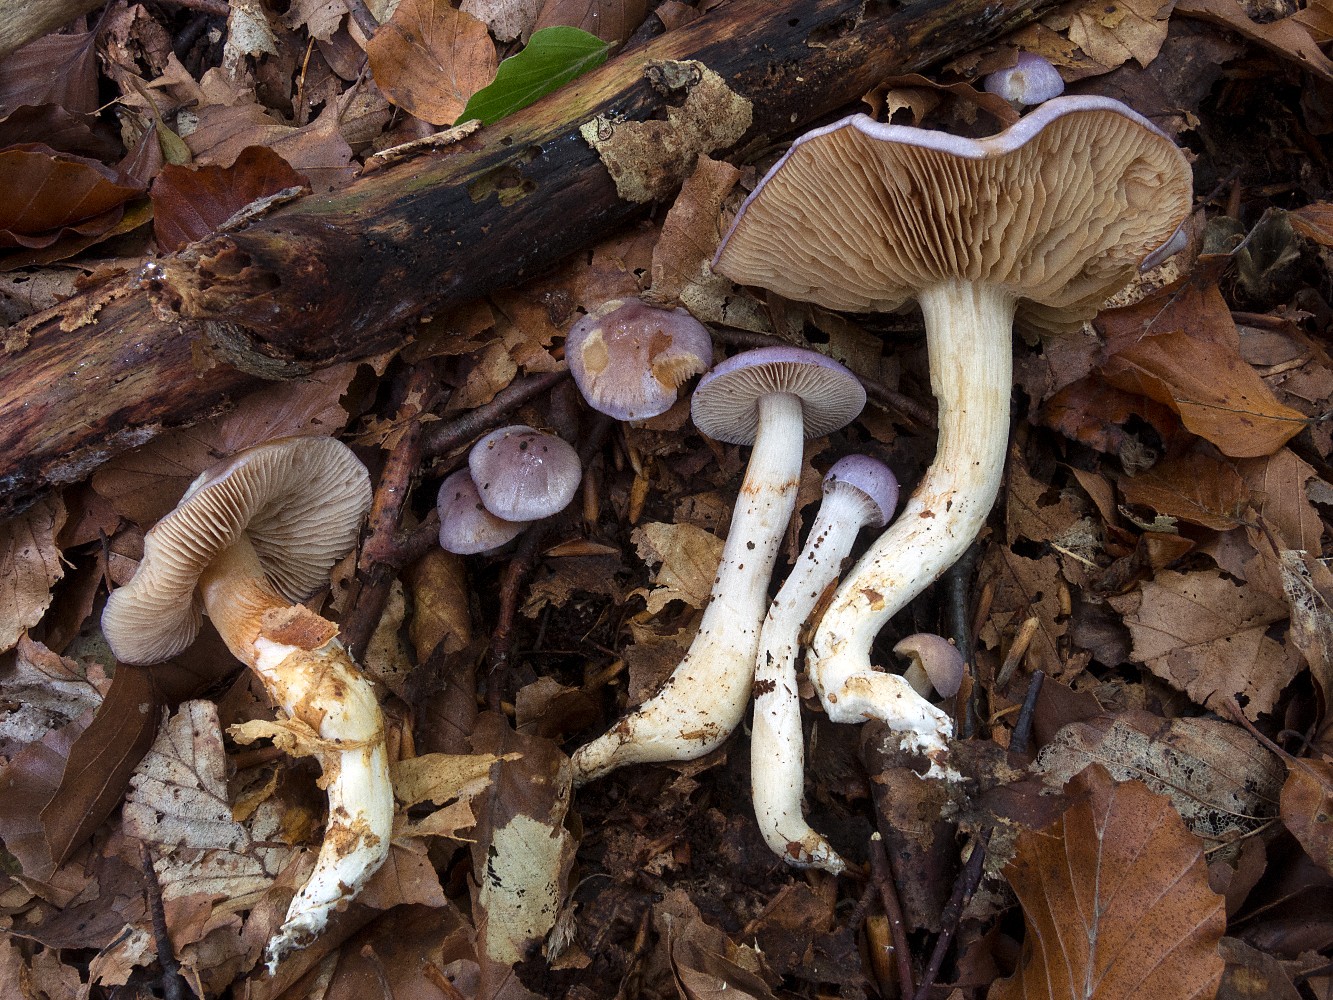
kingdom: Fungi
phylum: Basidiomycota
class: Agaricomycetes
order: Agaricales
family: Cortinariaceae
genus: Thaxterogaster
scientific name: Thaxterogaster croceocoeruleus
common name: blågullig slørhat
